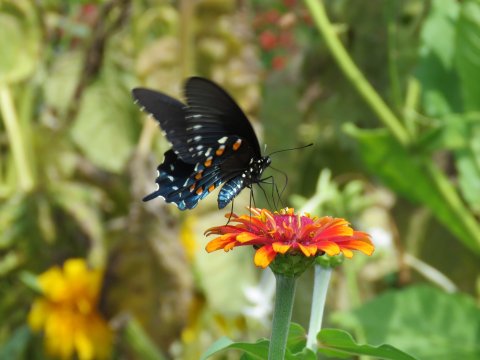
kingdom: Animalia
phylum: Arthropoda
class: Insecta
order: Lepidoptera
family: Papilionidae
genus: Battus
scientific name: Battus philenor
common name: Pipevine Swallowtail
